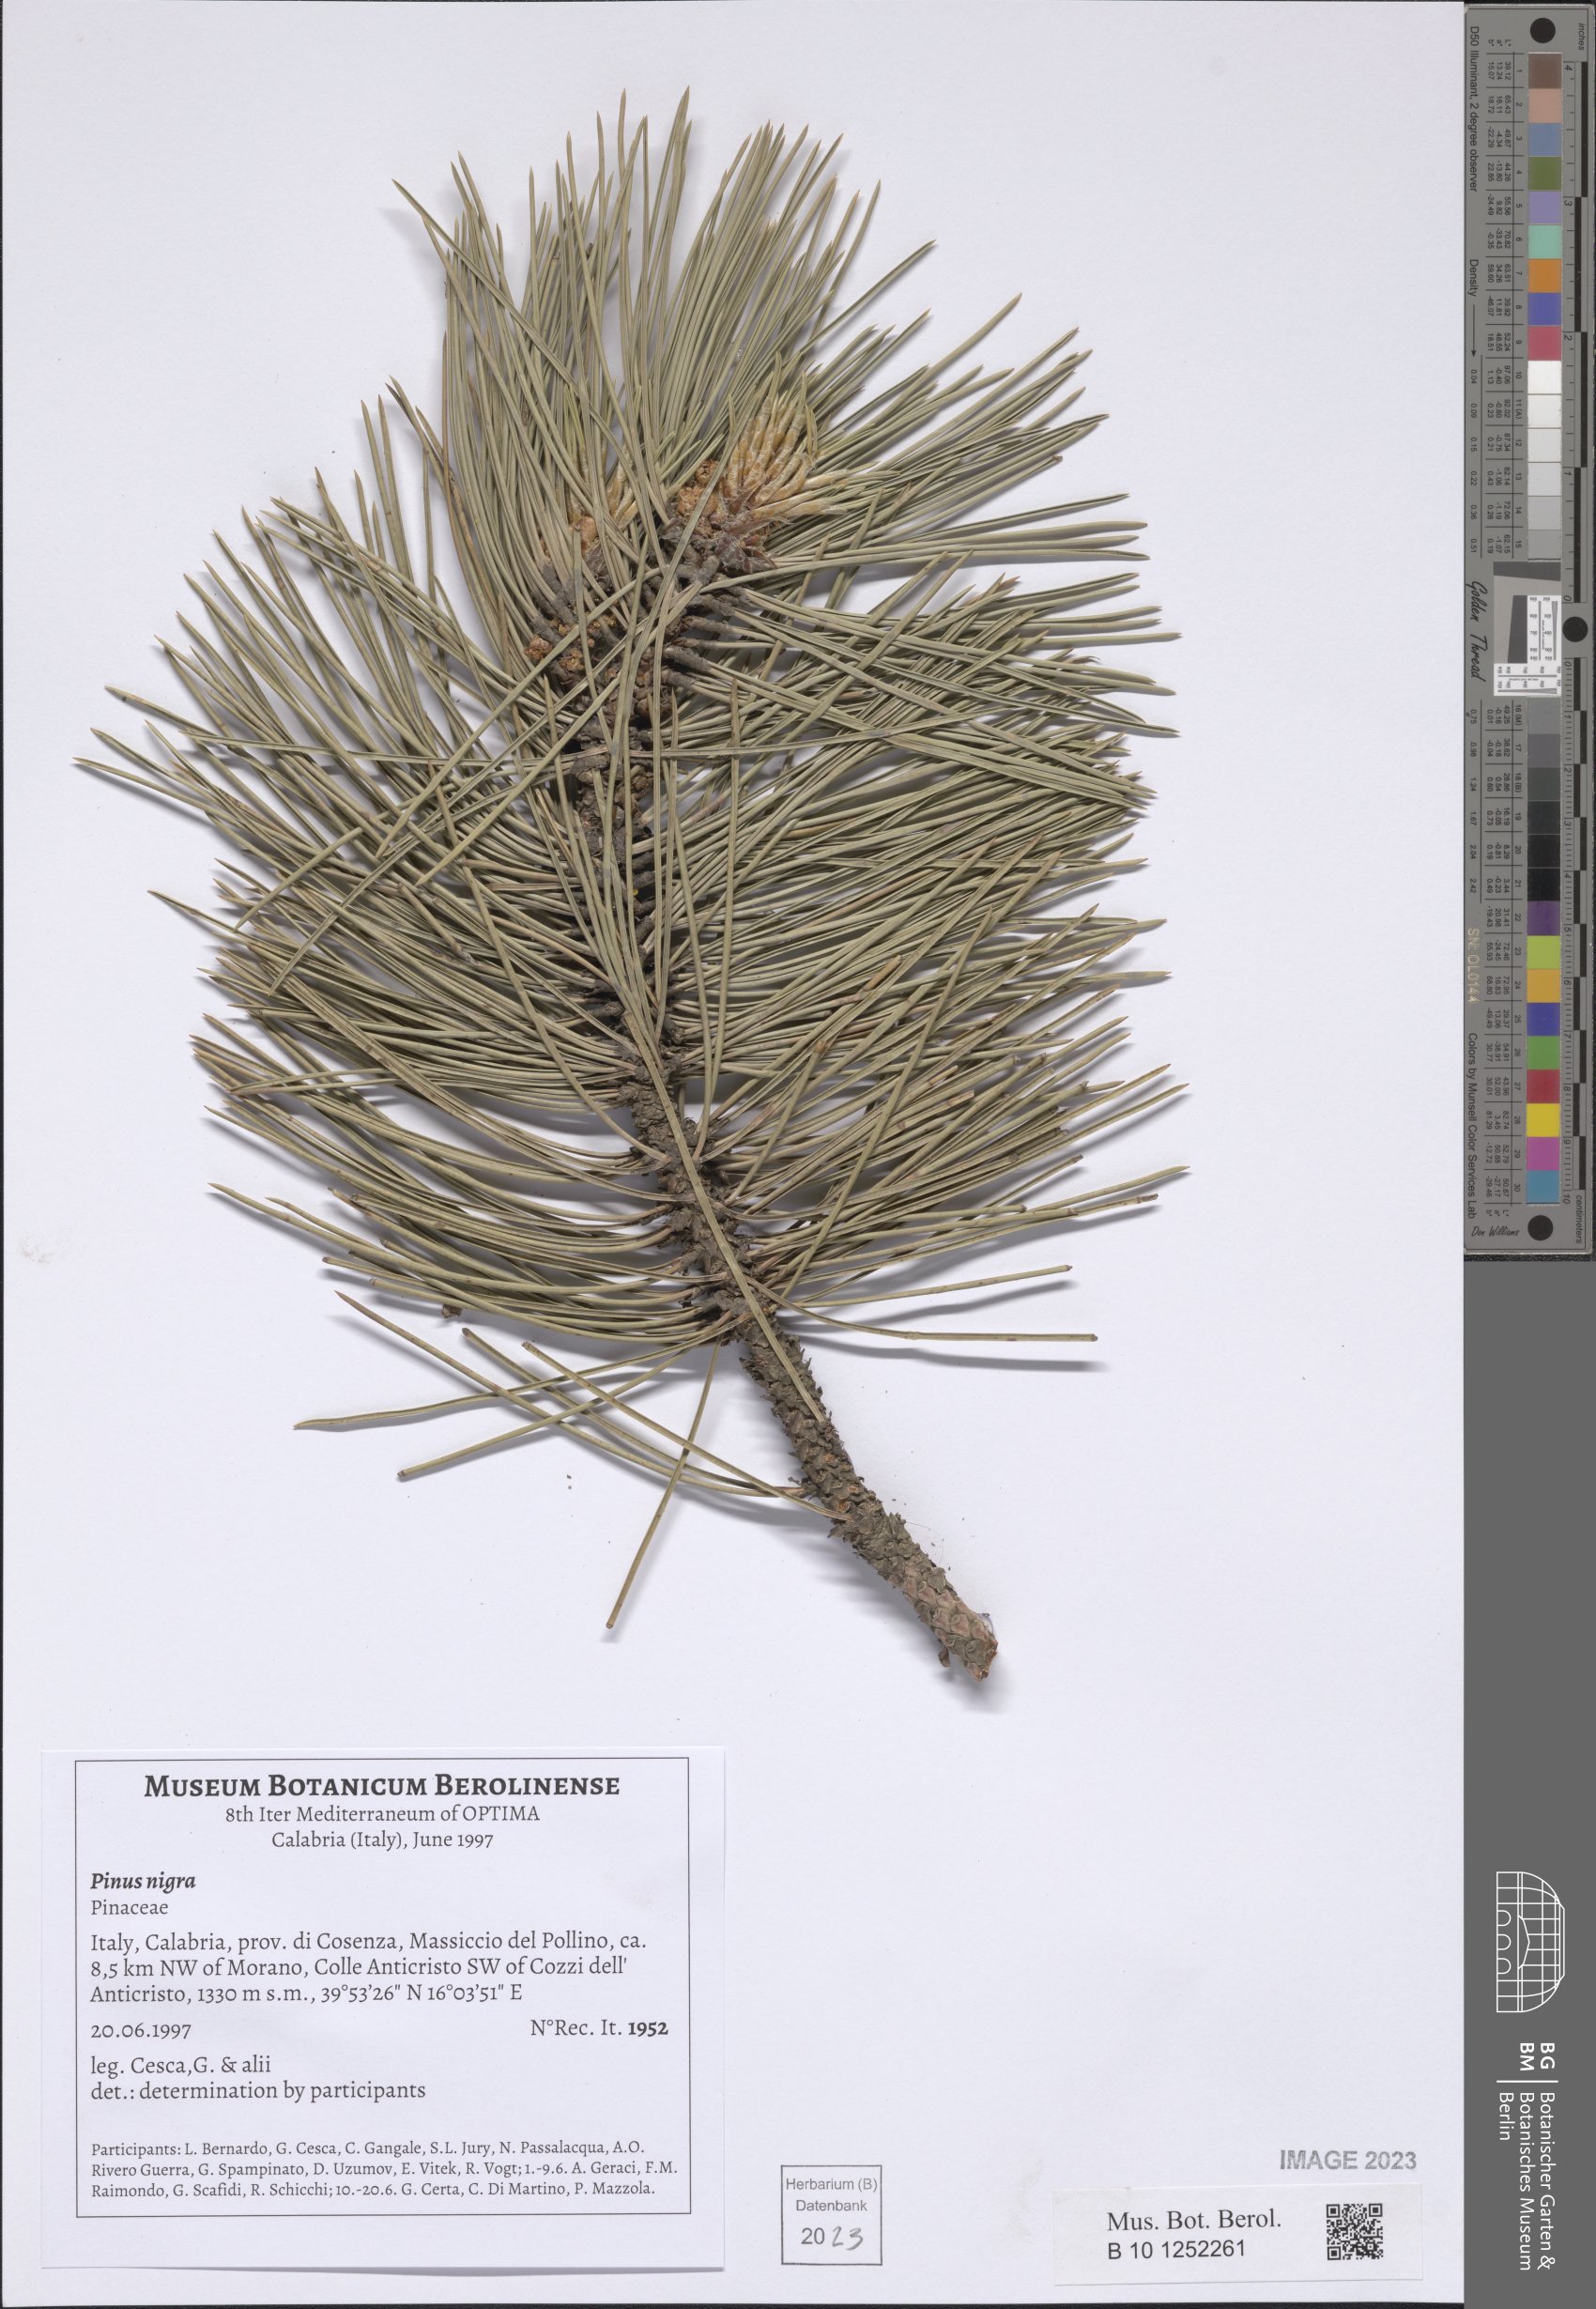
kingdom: Plantae
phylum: Tracheophyta
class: Pinopsida
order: Pinales
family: Pinaceae
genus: Pinus
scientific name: Pinus nigra
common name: Austrian pine
